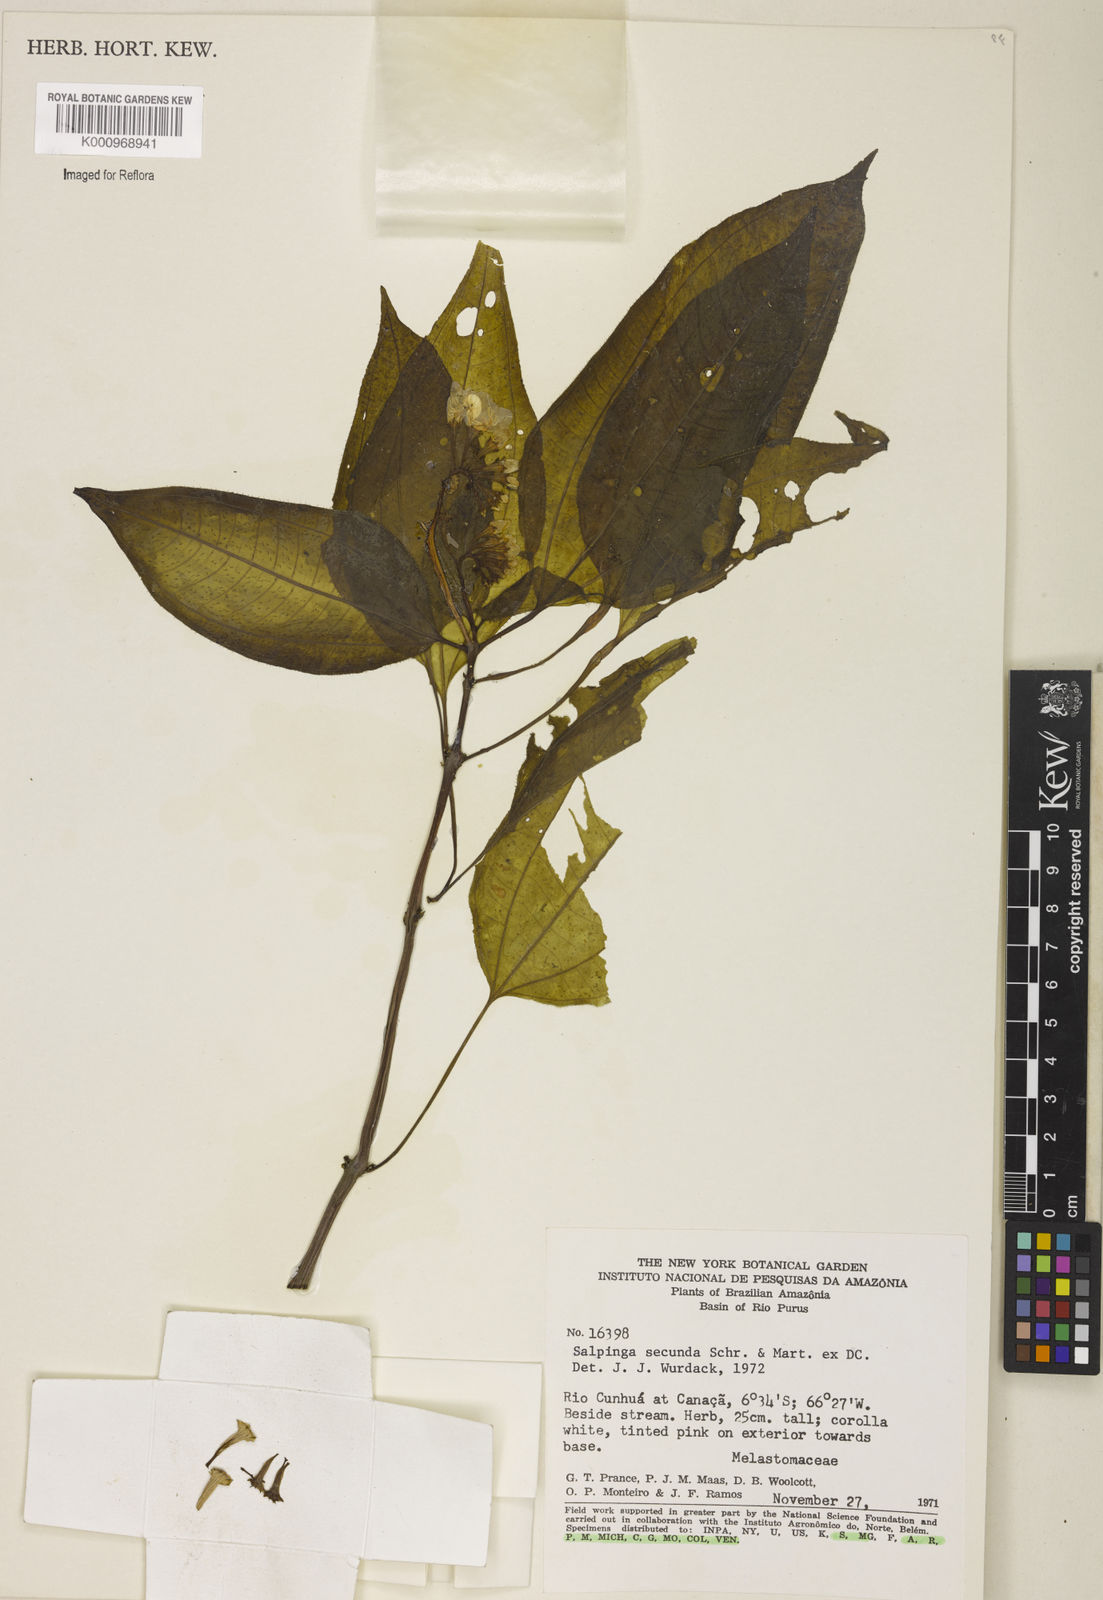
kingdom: Plantae
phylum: Tracheophyta
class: Magnoliopsida
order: Myrtales
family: Melastomataceae
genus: Salpinga
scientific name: Salpinga secunda
